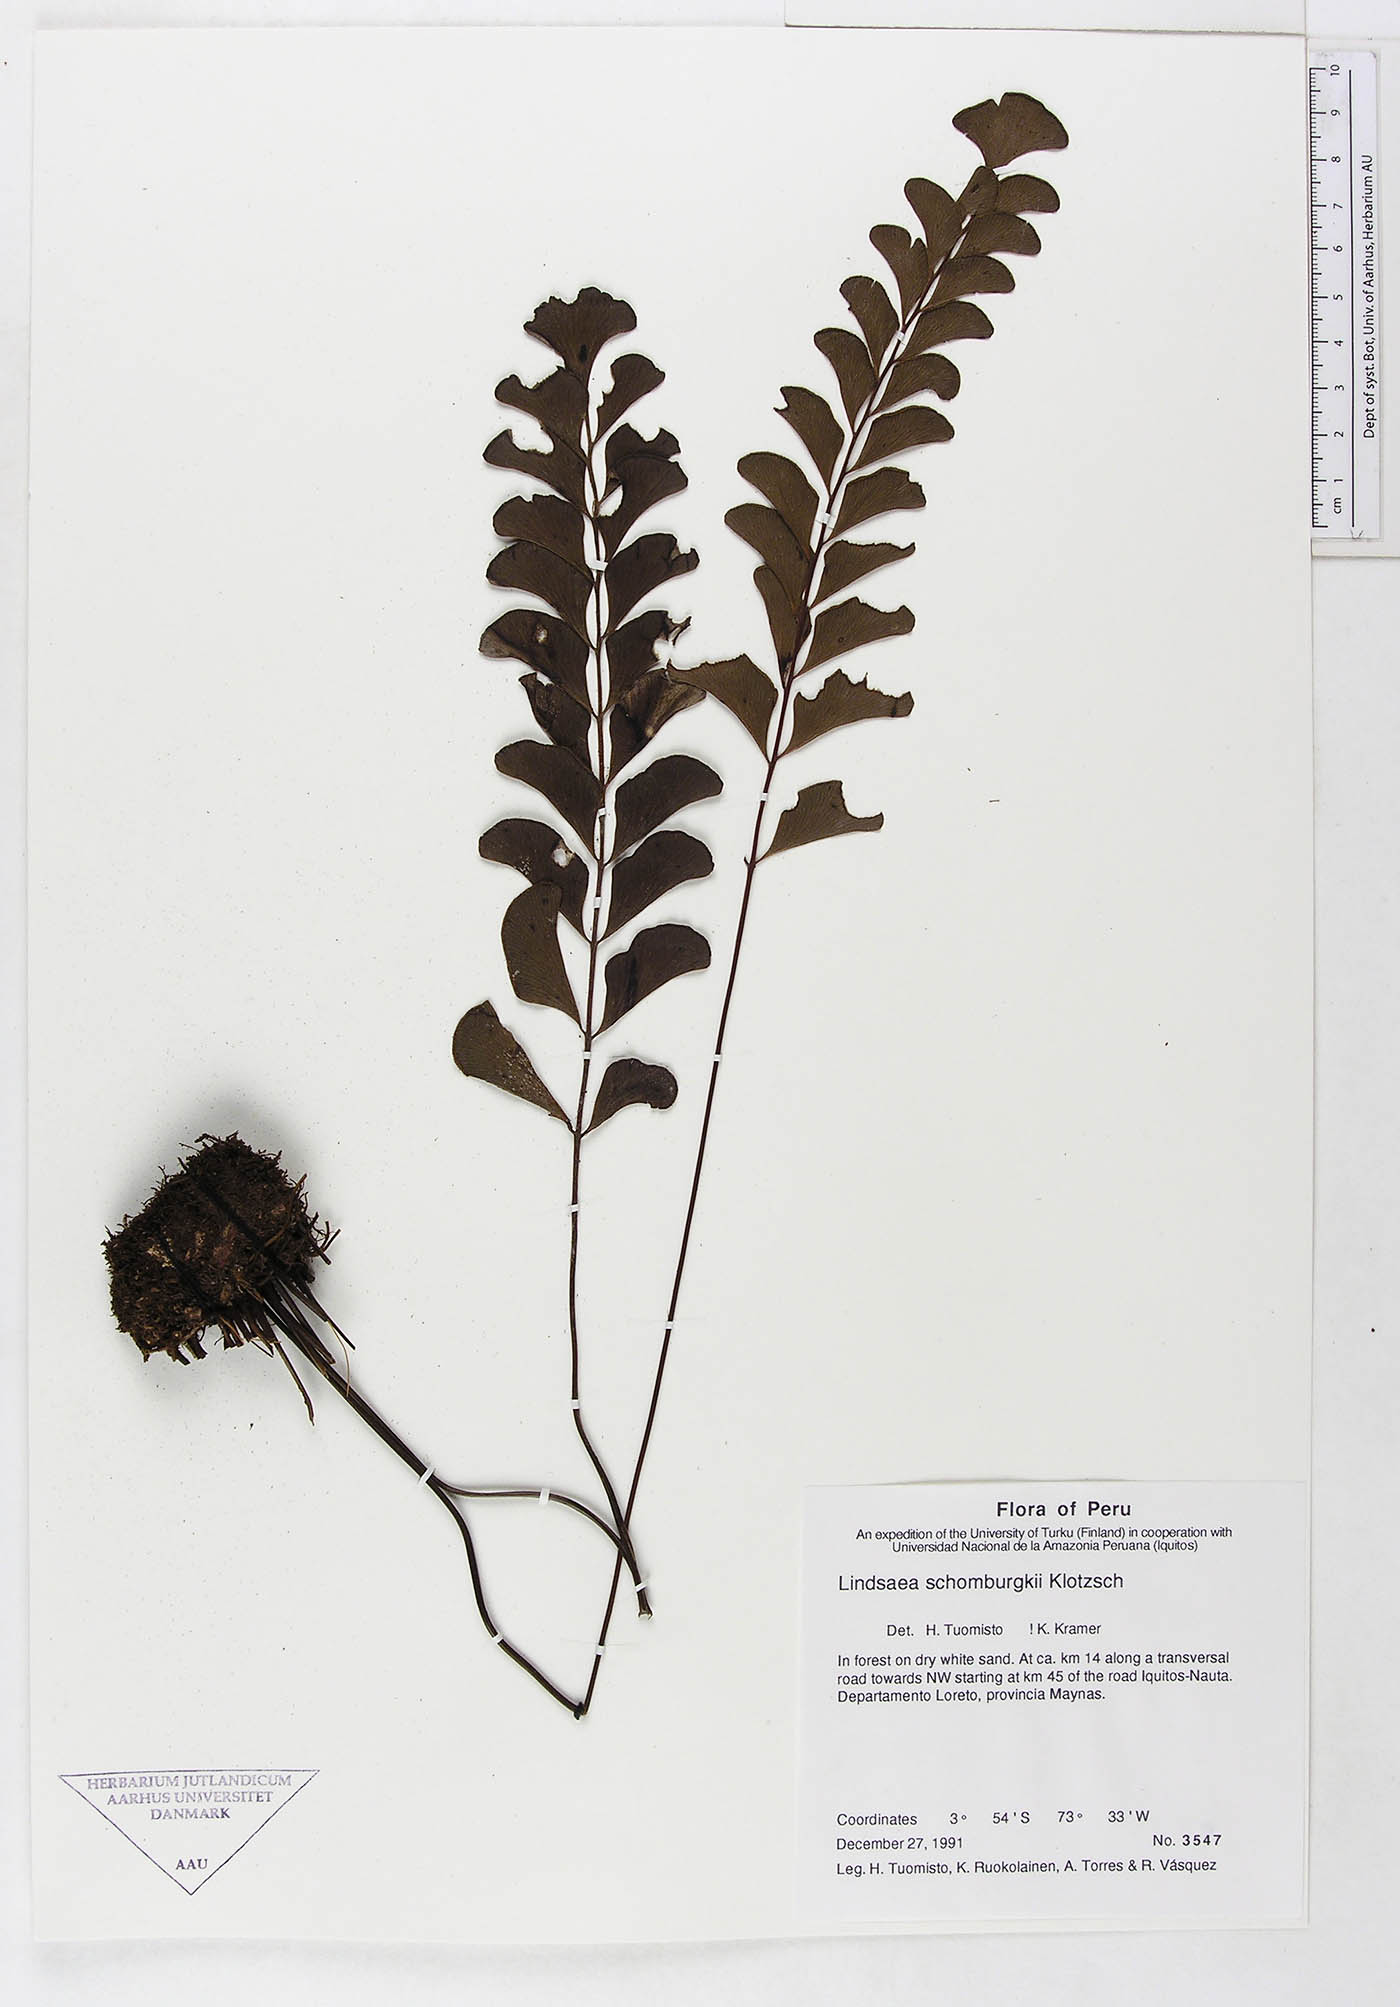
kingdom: Plantae
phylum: Tracheophyta
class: Polypodiopsida
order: Polypodiales
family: Dennstaedtiaceae
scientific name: Dennstaedtiaceae
